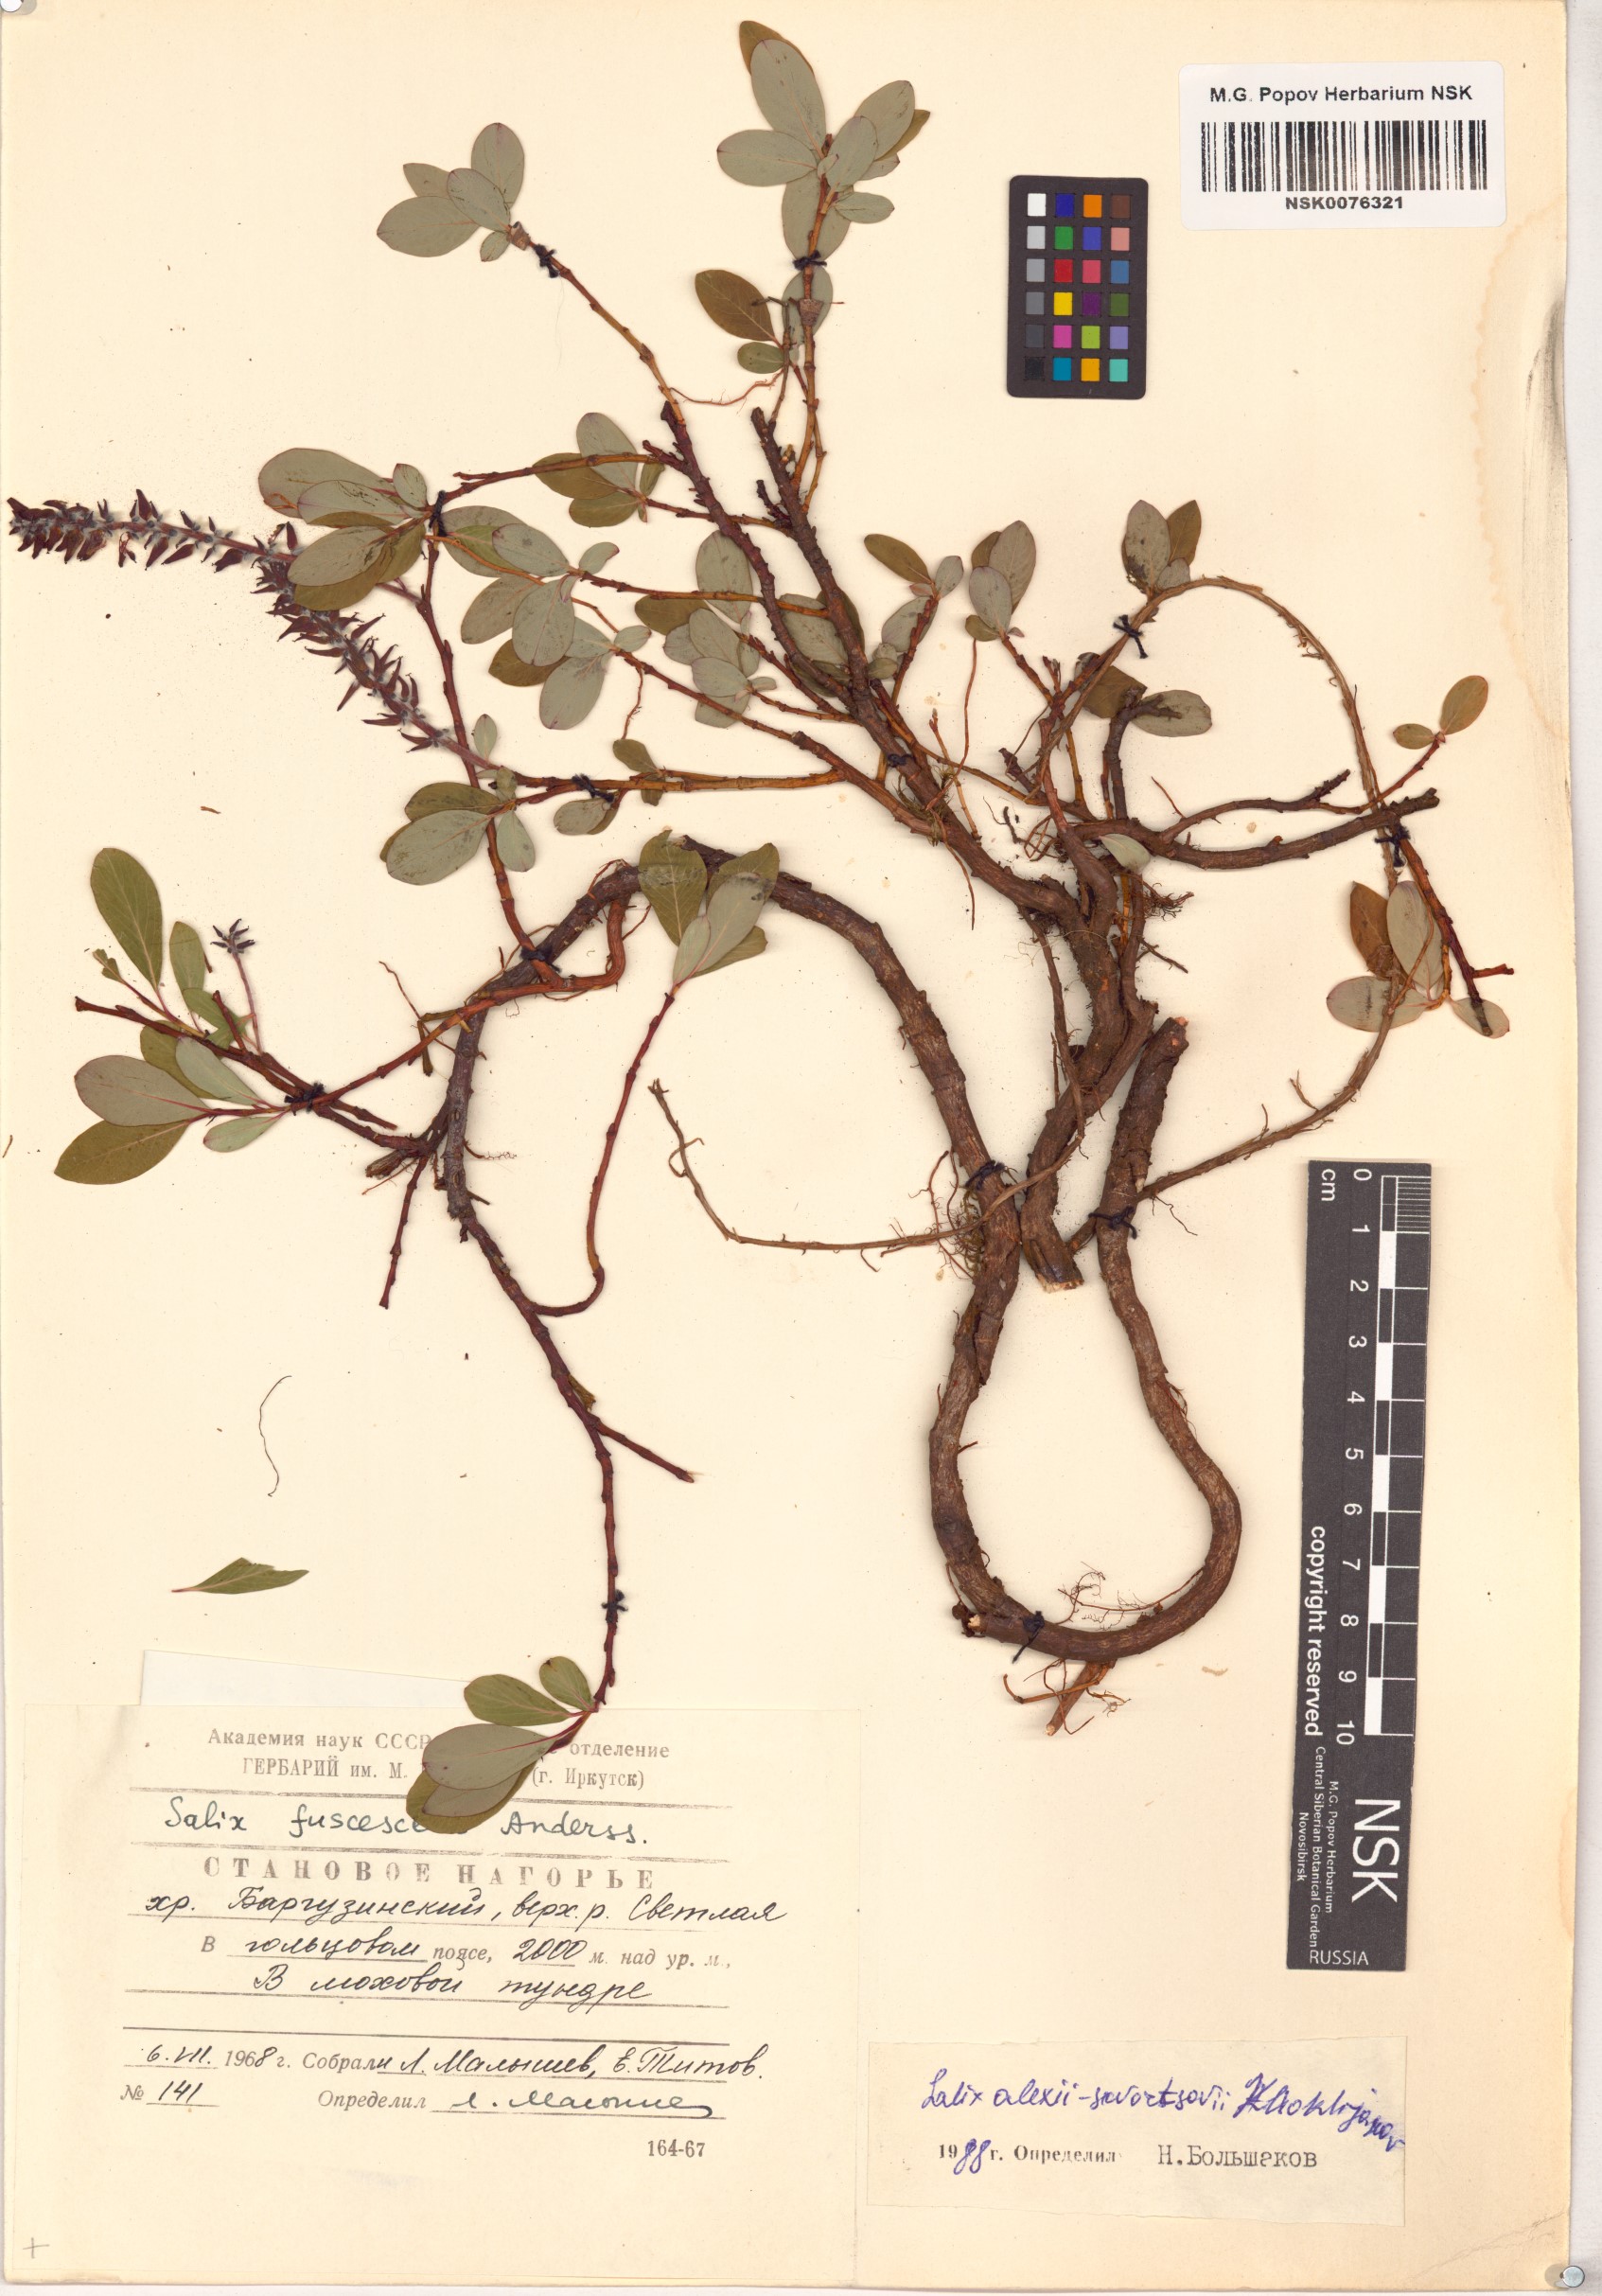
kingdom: Plantae
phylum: Tracheophyta
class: Magnoliopsida
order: Malpighiales
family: Salicaceae
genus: Salix
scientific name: Salix alexii-skvortzovii
